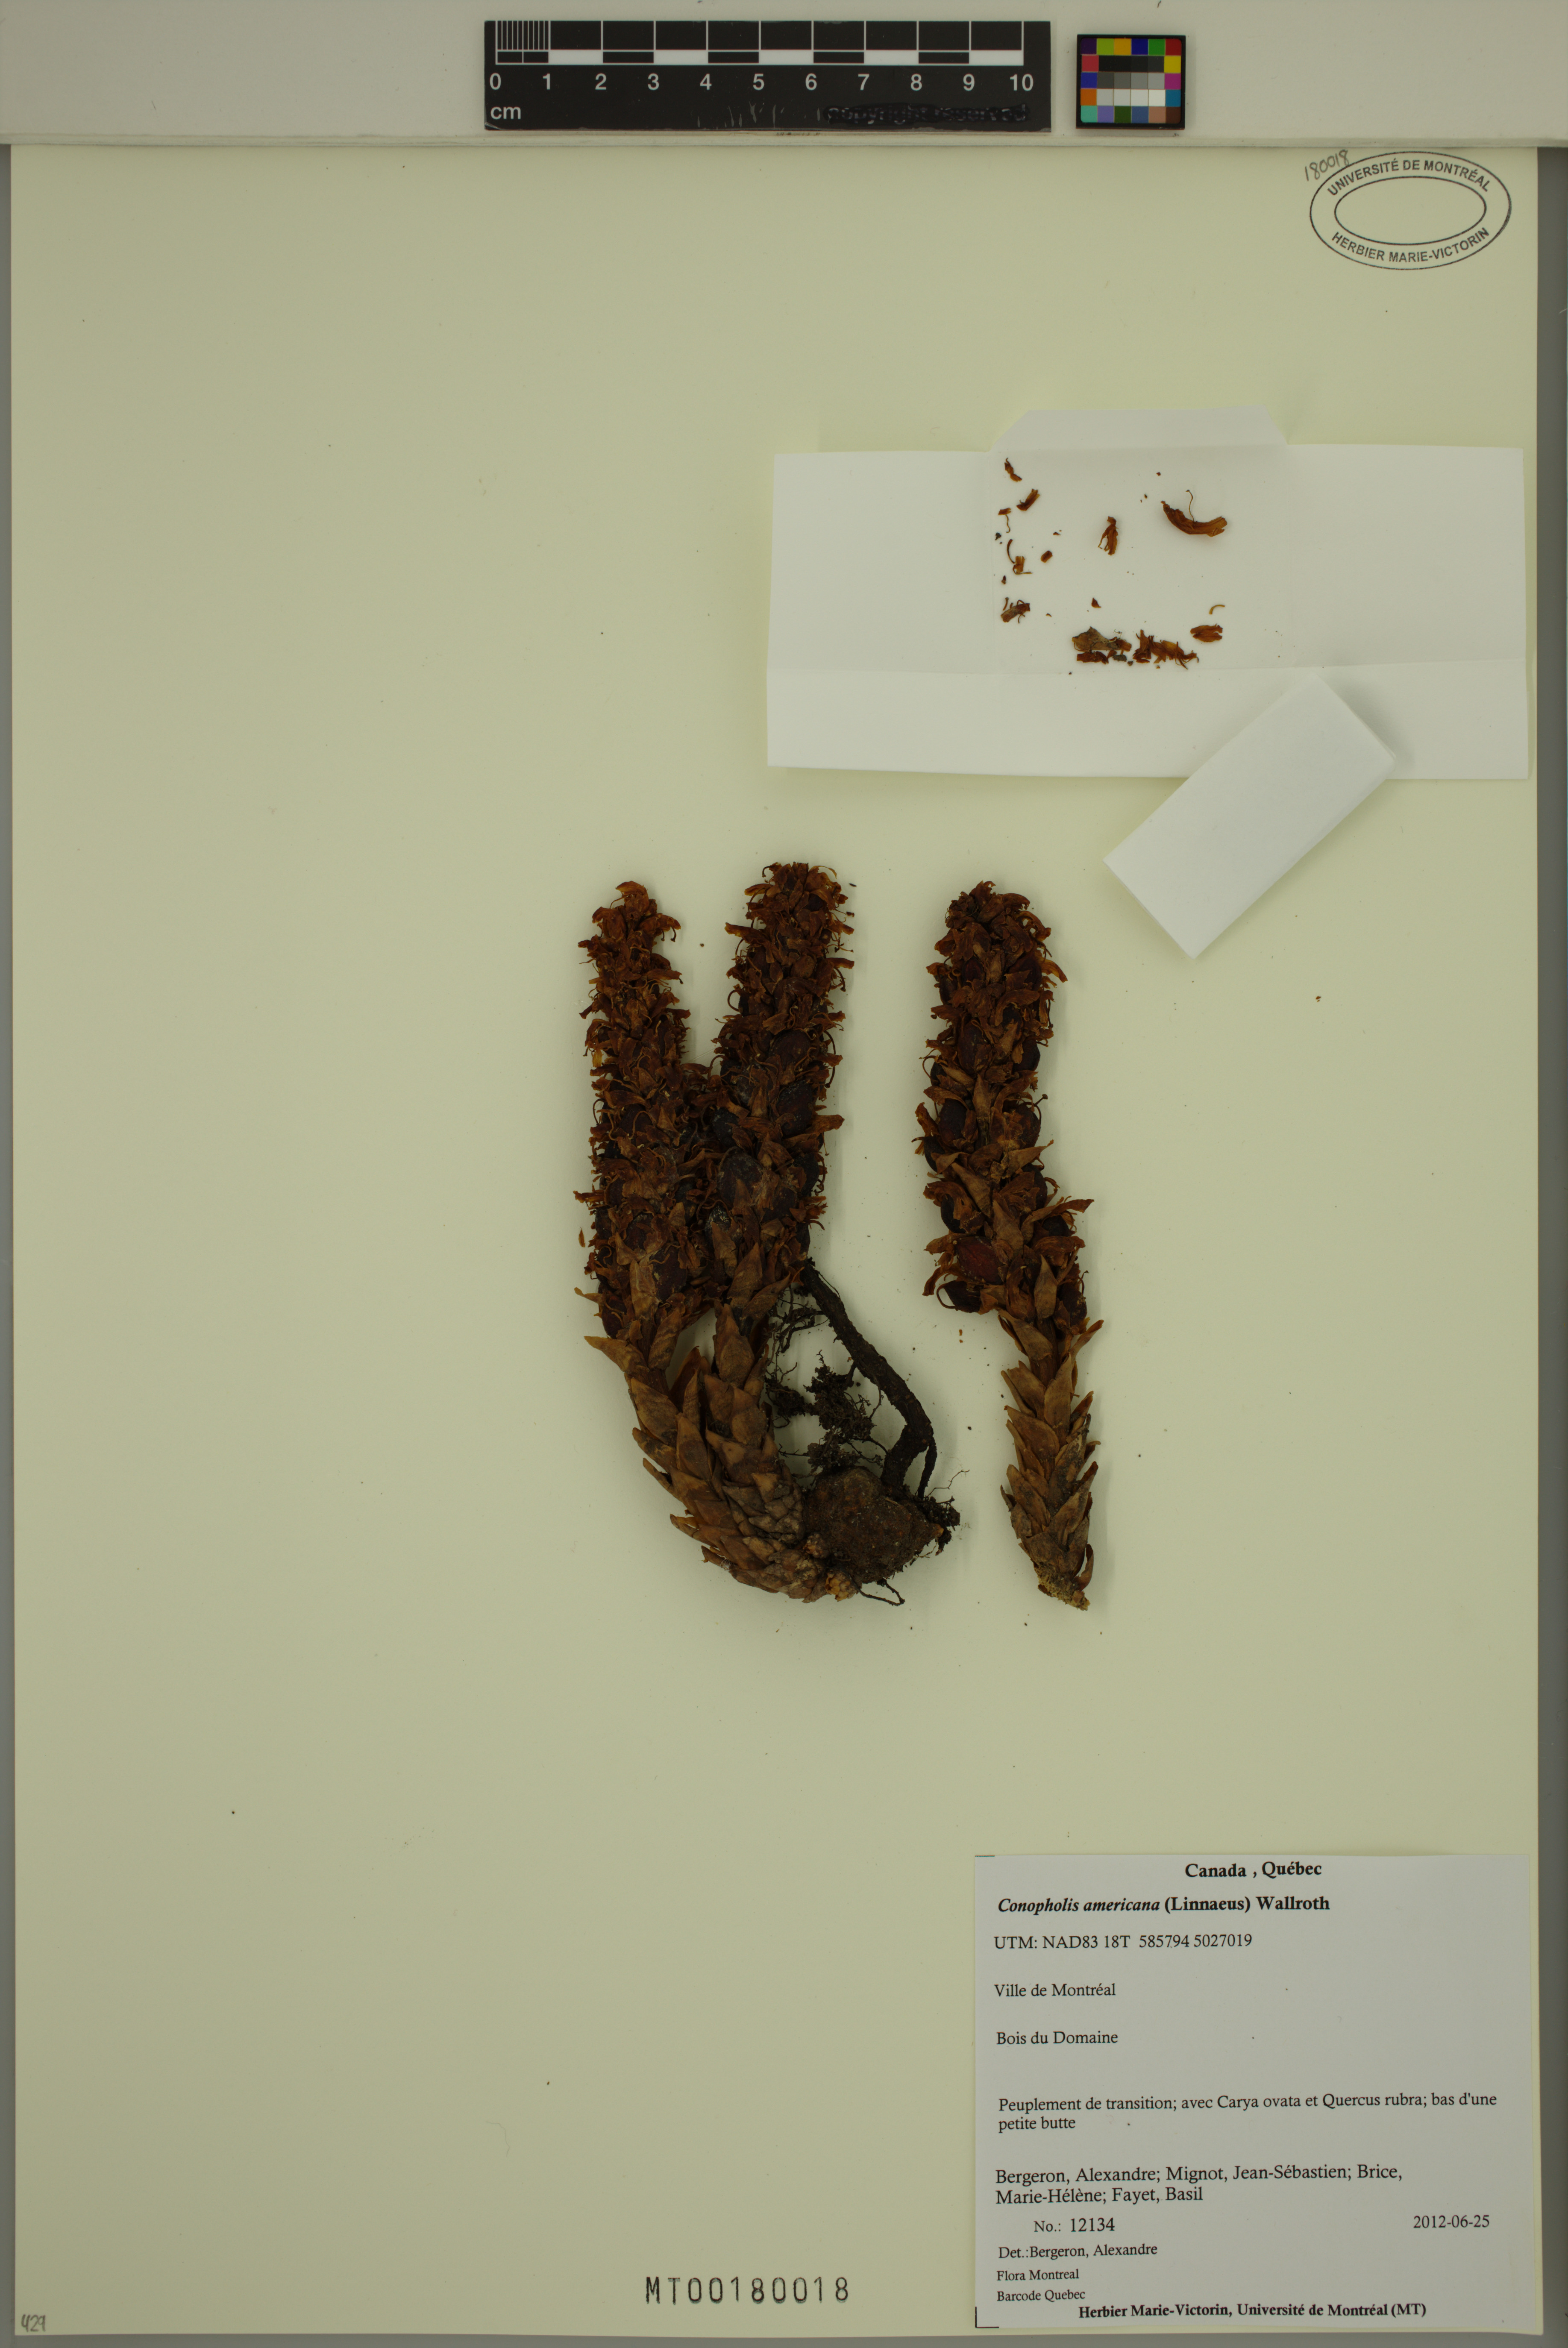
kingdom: Plantae
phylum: Tracheophyta
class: Magnoliopsida
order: Lamiales
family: Orobanchaceae
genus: Conopholis
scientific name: Conopholis americana
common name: American cancer-root
